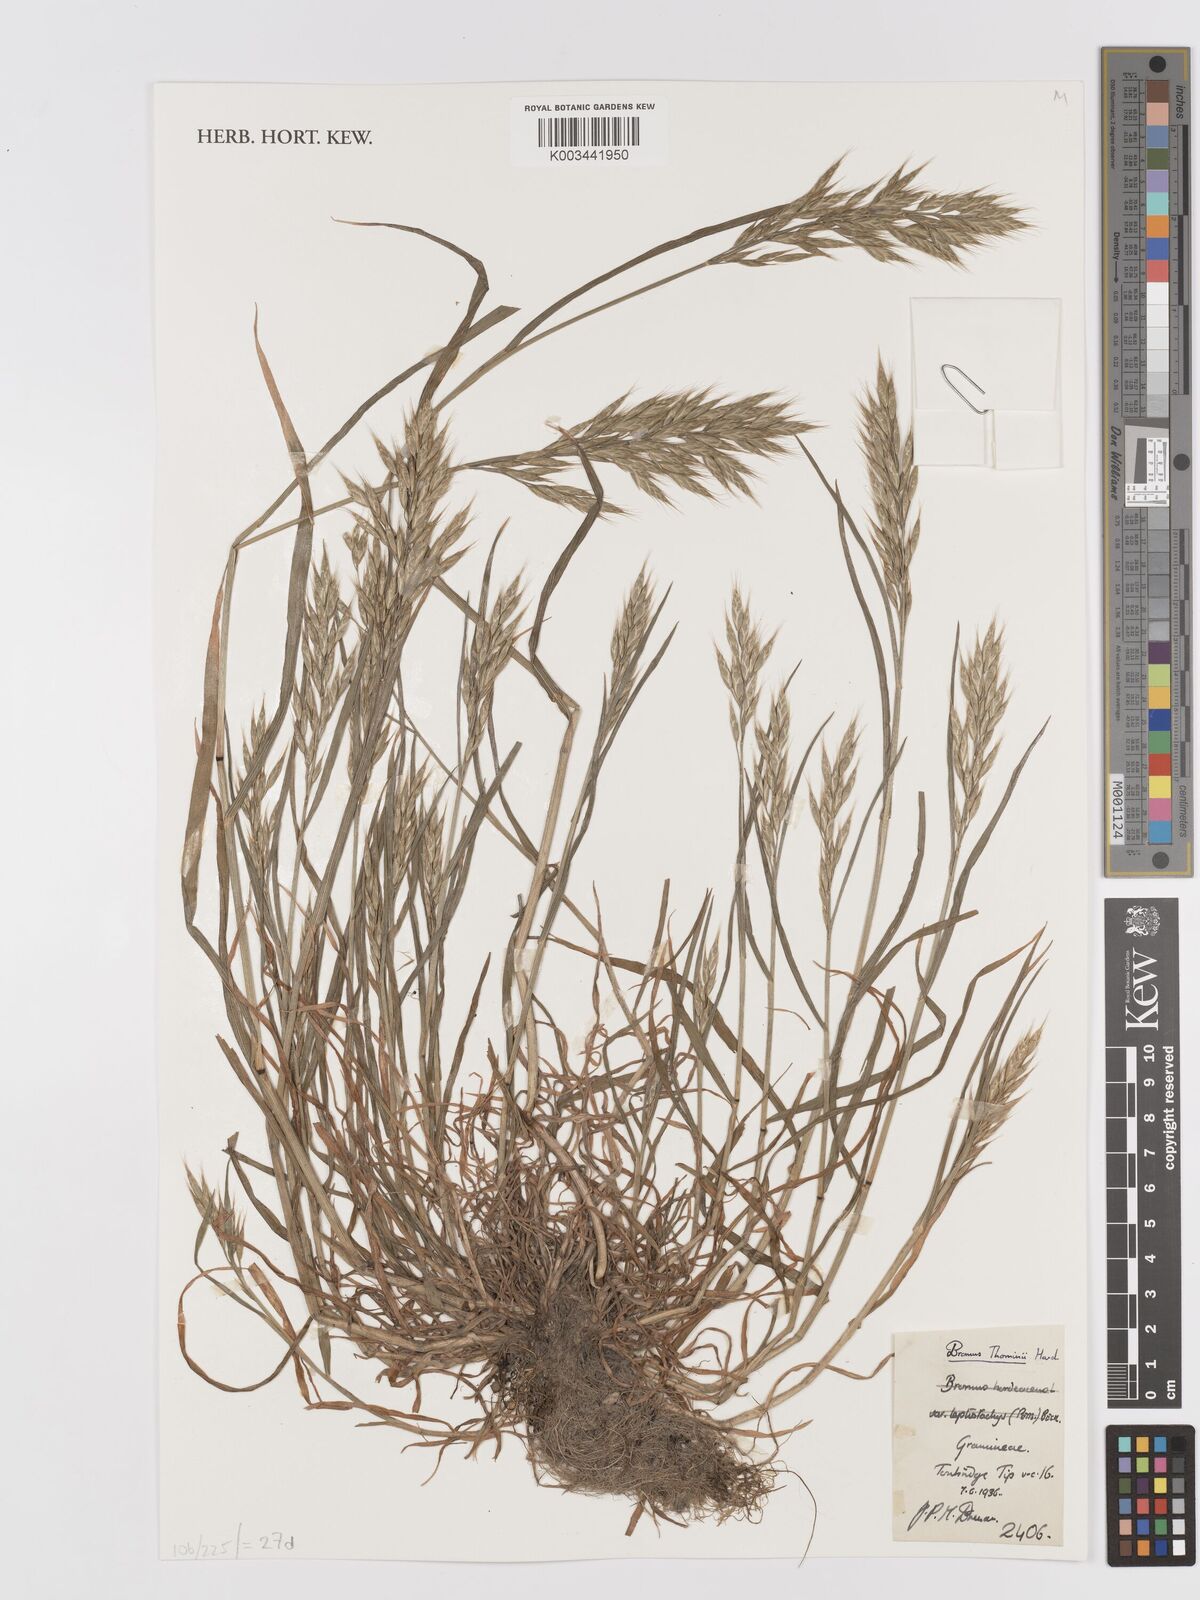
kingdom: Plantae
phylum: Tracheophyta
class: Liliopsida
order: Poales
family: Poaceae
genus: Bromus
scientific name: Bromus hordeaceus
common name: Soft brome
